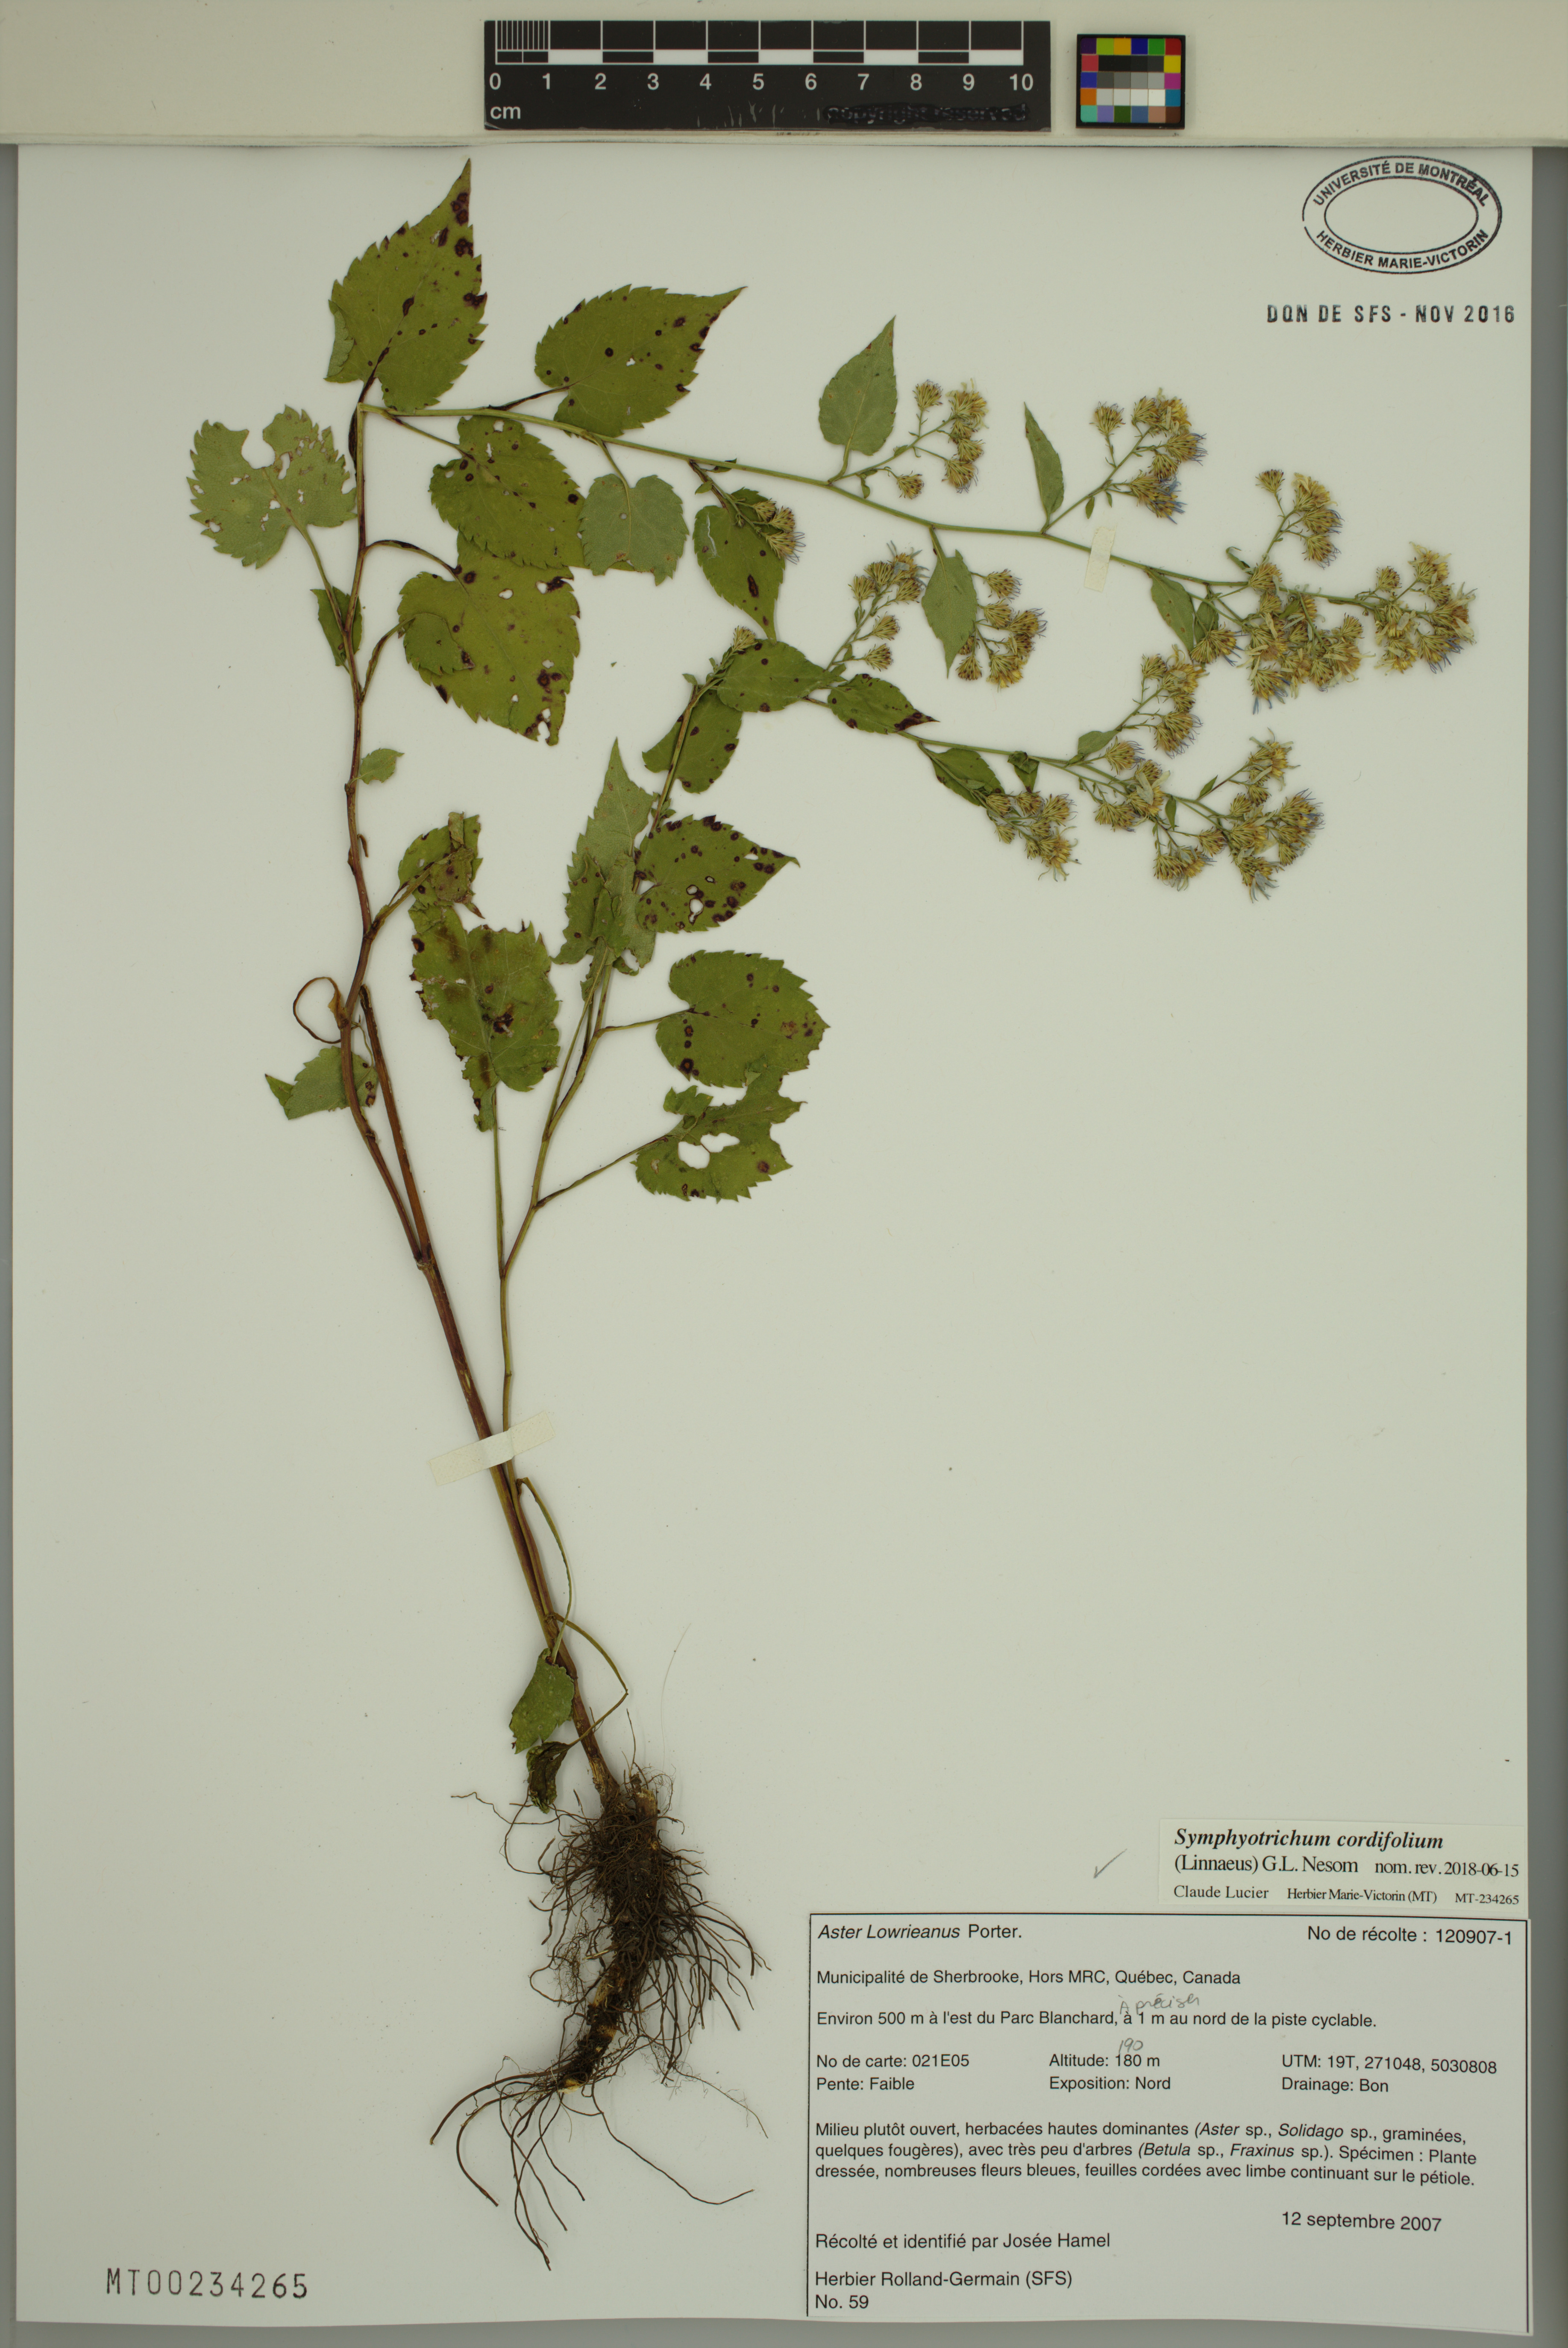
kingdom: Plantae
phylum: Tracheophyta
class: Magnoliopsida
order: Asterales
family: Asteraceae
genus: Symphyotrichum
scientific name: Symphyotrichum cordifolium
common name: Beeweed
